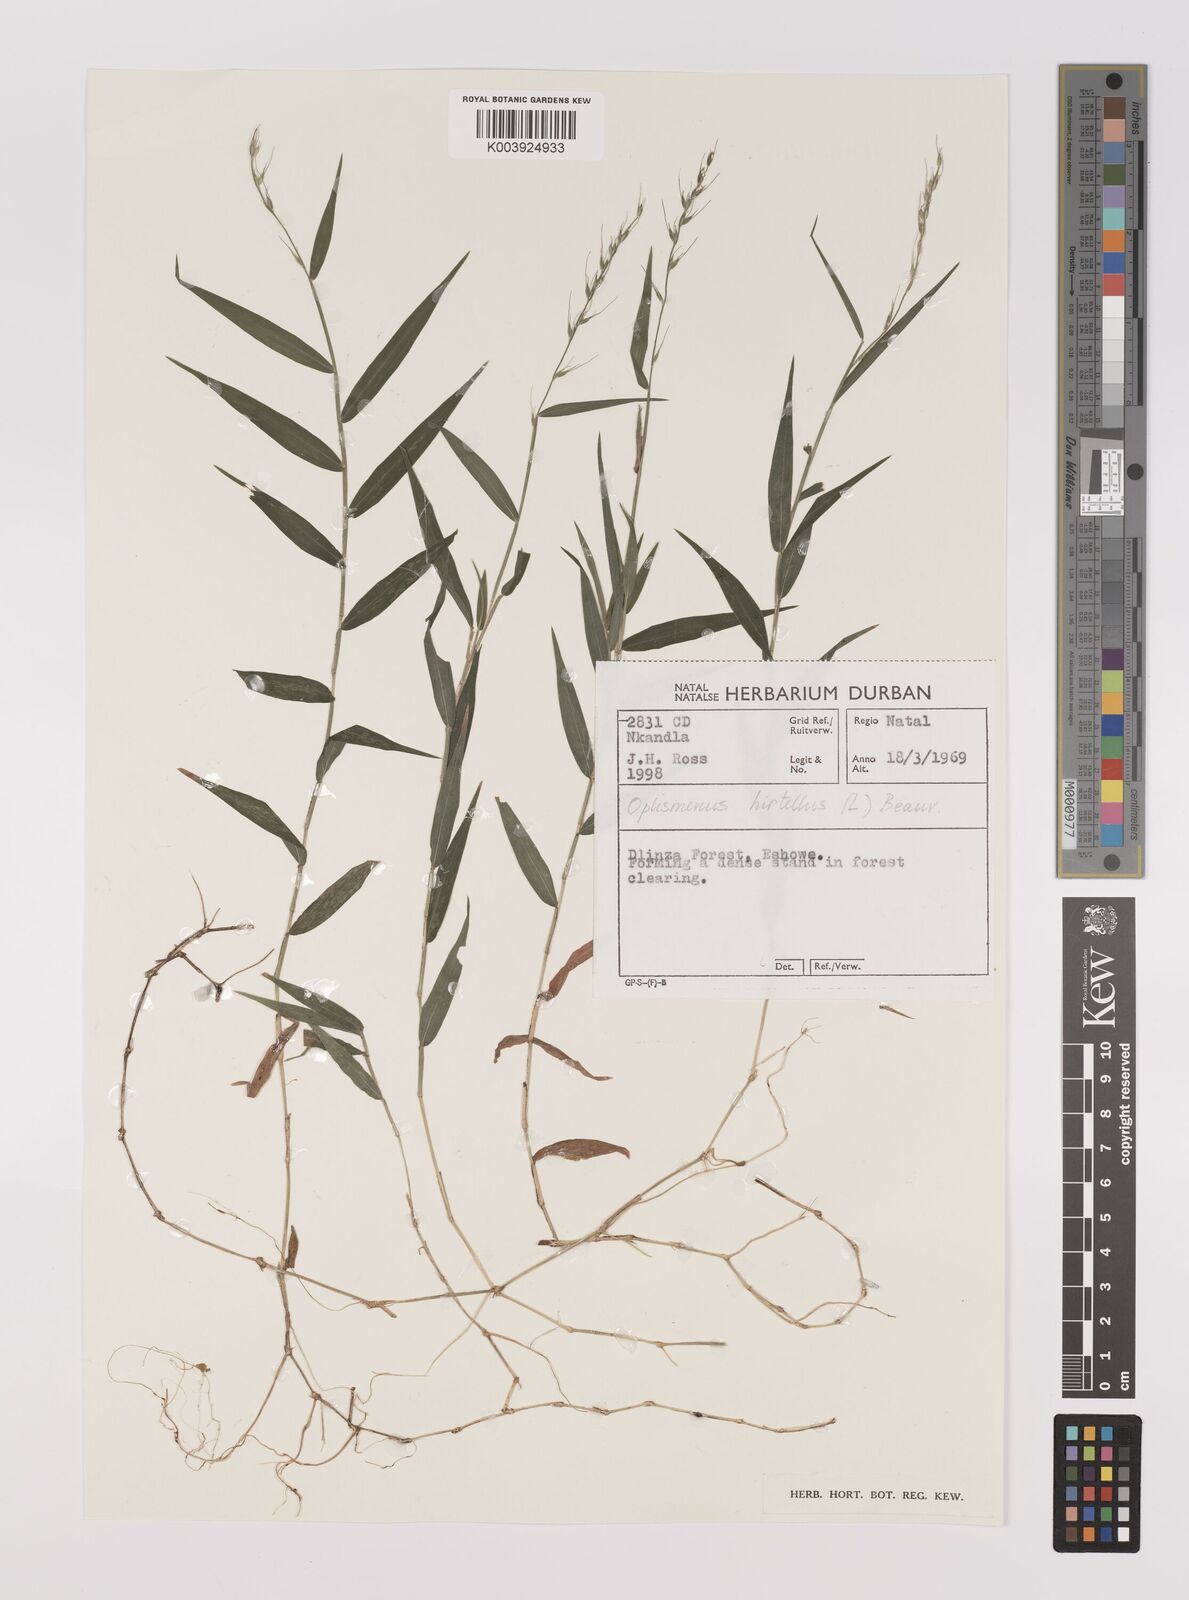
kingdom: Plantae
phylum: Tracheophyta
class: Liliopsida
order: Poales
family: Poaceae
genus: Oplismenus
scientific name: Oplismenus undulatifolius
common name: Wavyleaf basketgrass
